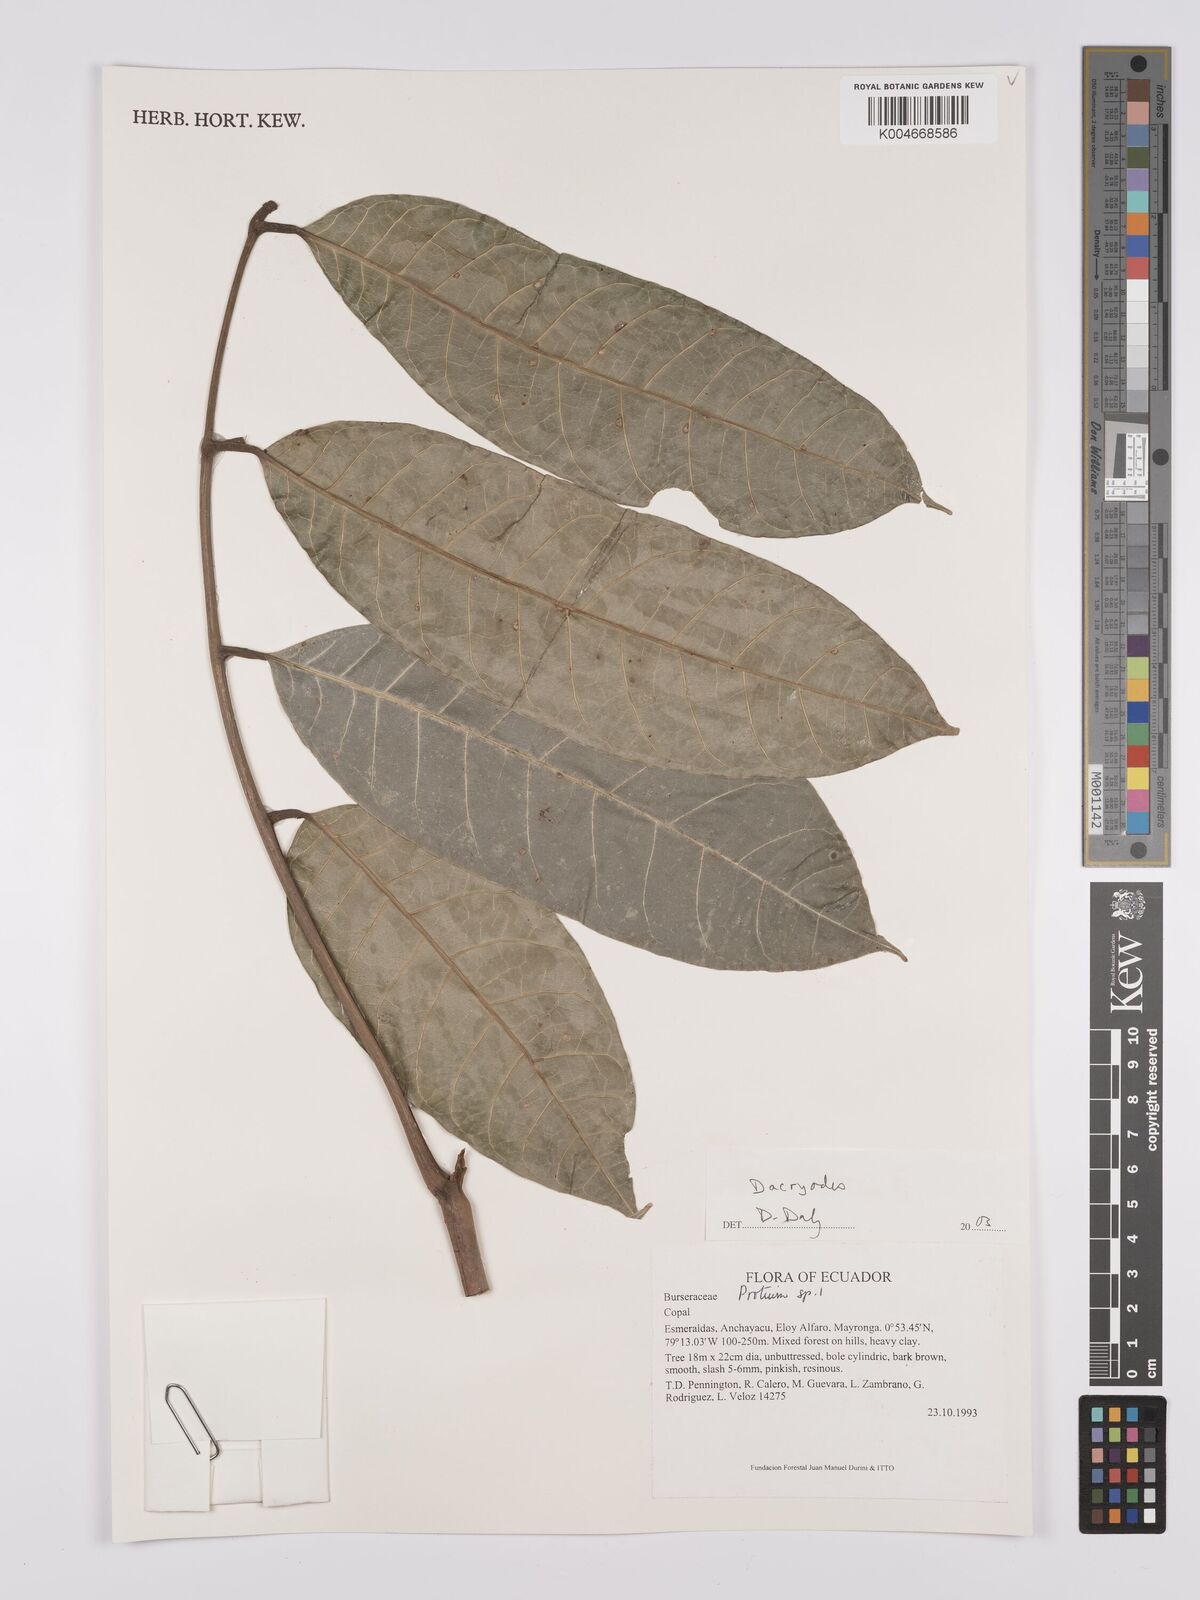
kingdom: Plantae
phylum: Tracheophyta
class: Magnoliopsida
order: Sapindales
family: Burseraceae
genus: Dacryodes
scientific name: Dacryodes
